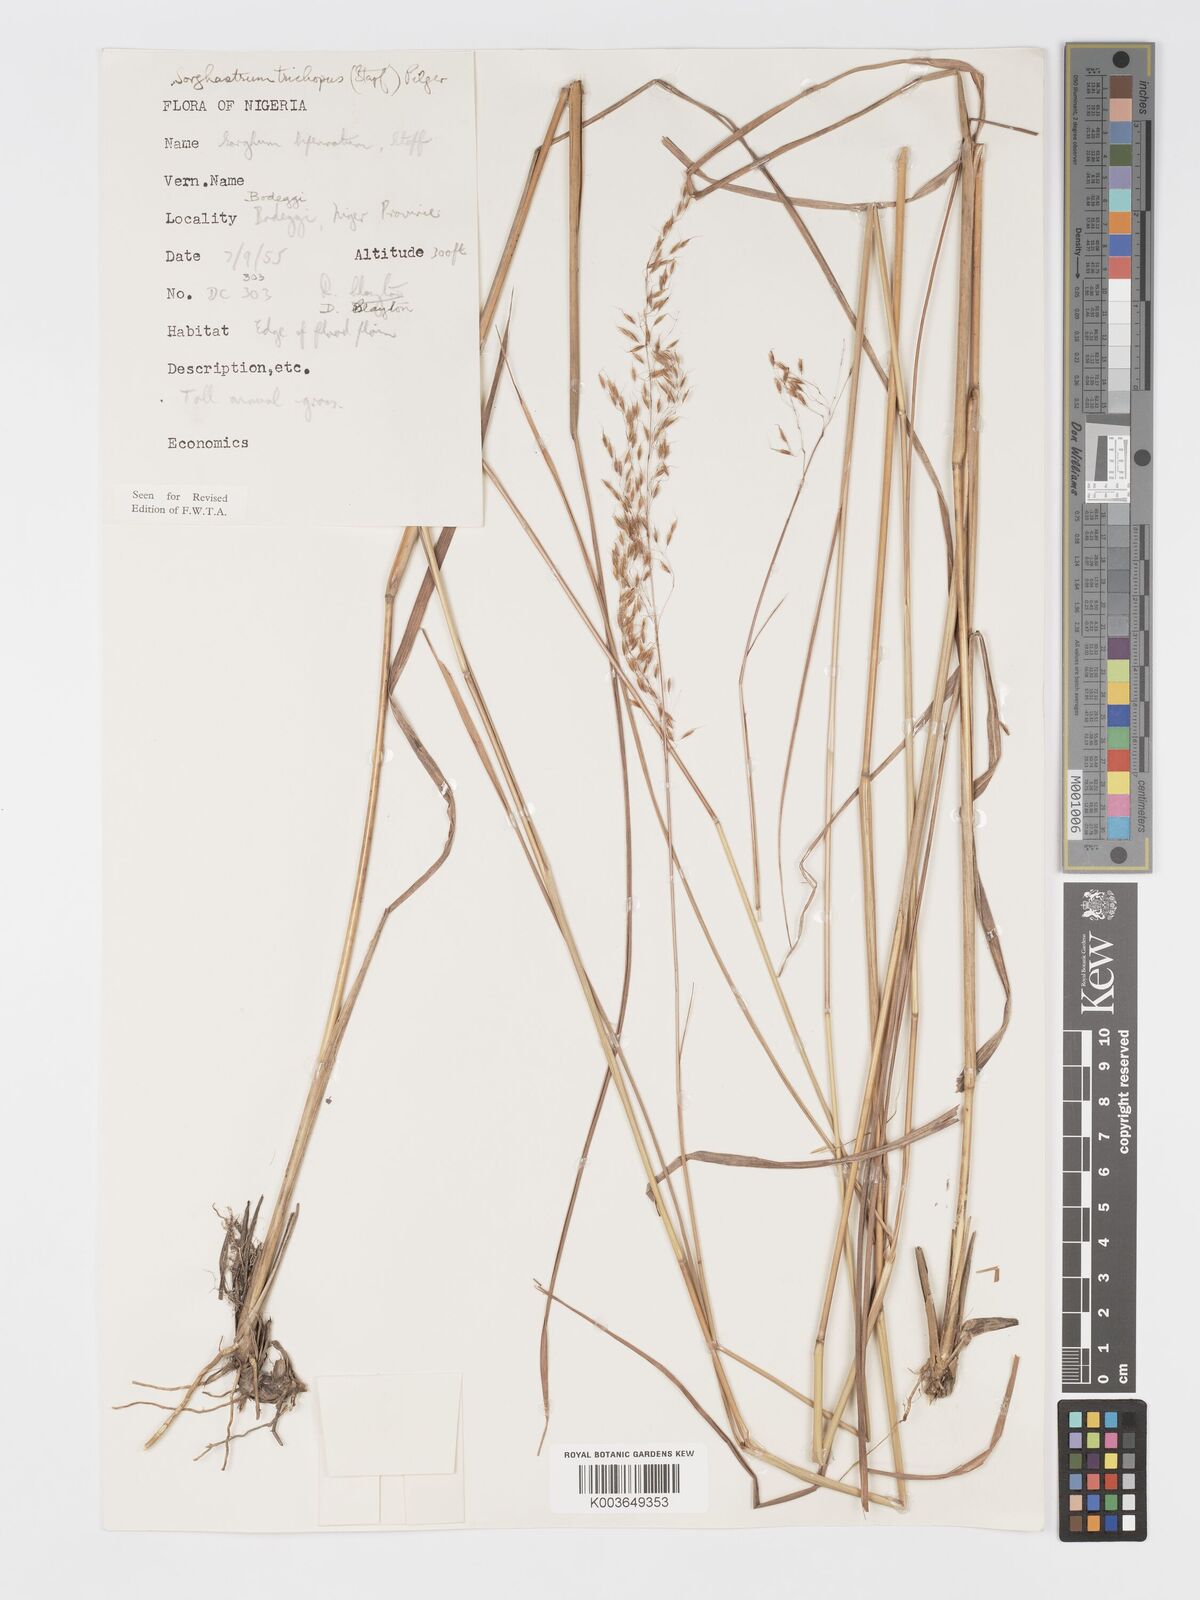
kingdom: Plantae
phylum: Tracheophyta
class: Liliopsida
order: Poales
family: Poaceae
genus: Sorghastrum
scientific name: Sorghastrum stipoides
